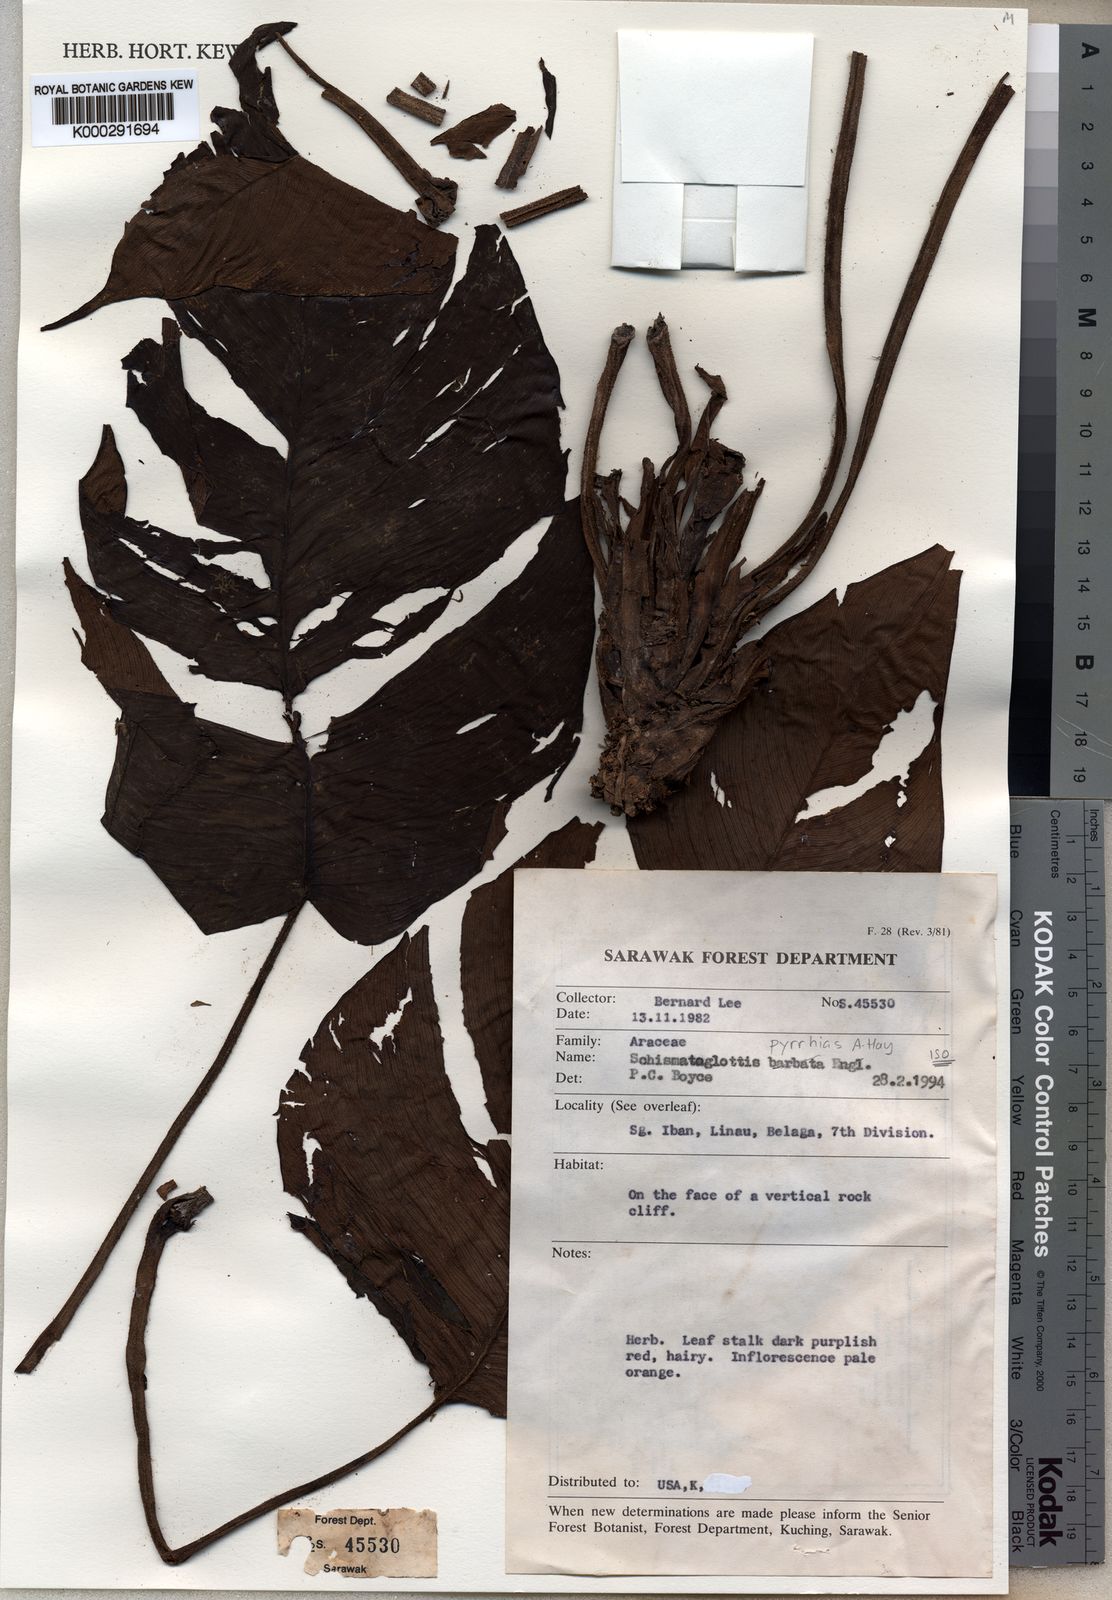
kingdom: Plantae
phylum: Tracheophyta
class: Liliopsida
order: Alismatales
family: Araceae
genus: Schismatoglottis
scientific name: Schismatoglottis pyrrhias
